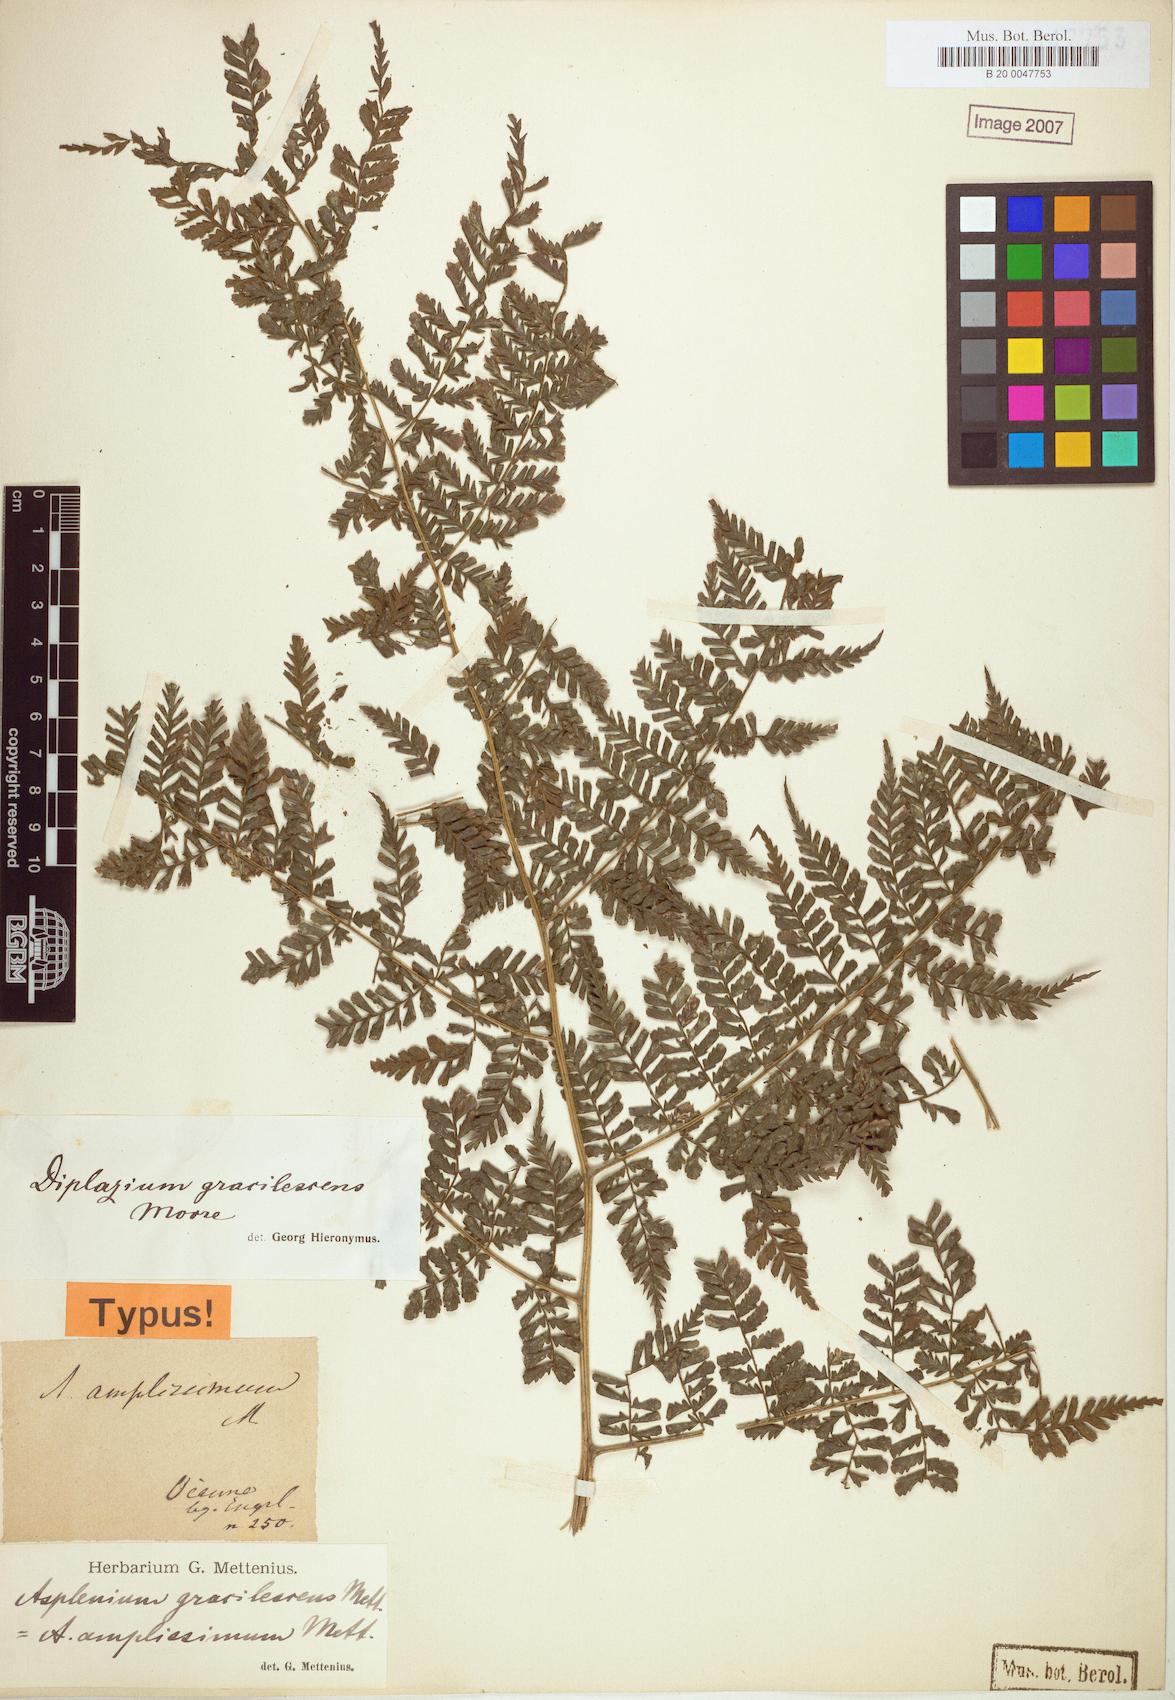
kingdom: Plantae
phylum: Tracheophyta
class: Polypodiopsida
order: Polypodiales
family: Athyriaceae
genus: Diplazium
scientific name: Diplazium gracilescens
